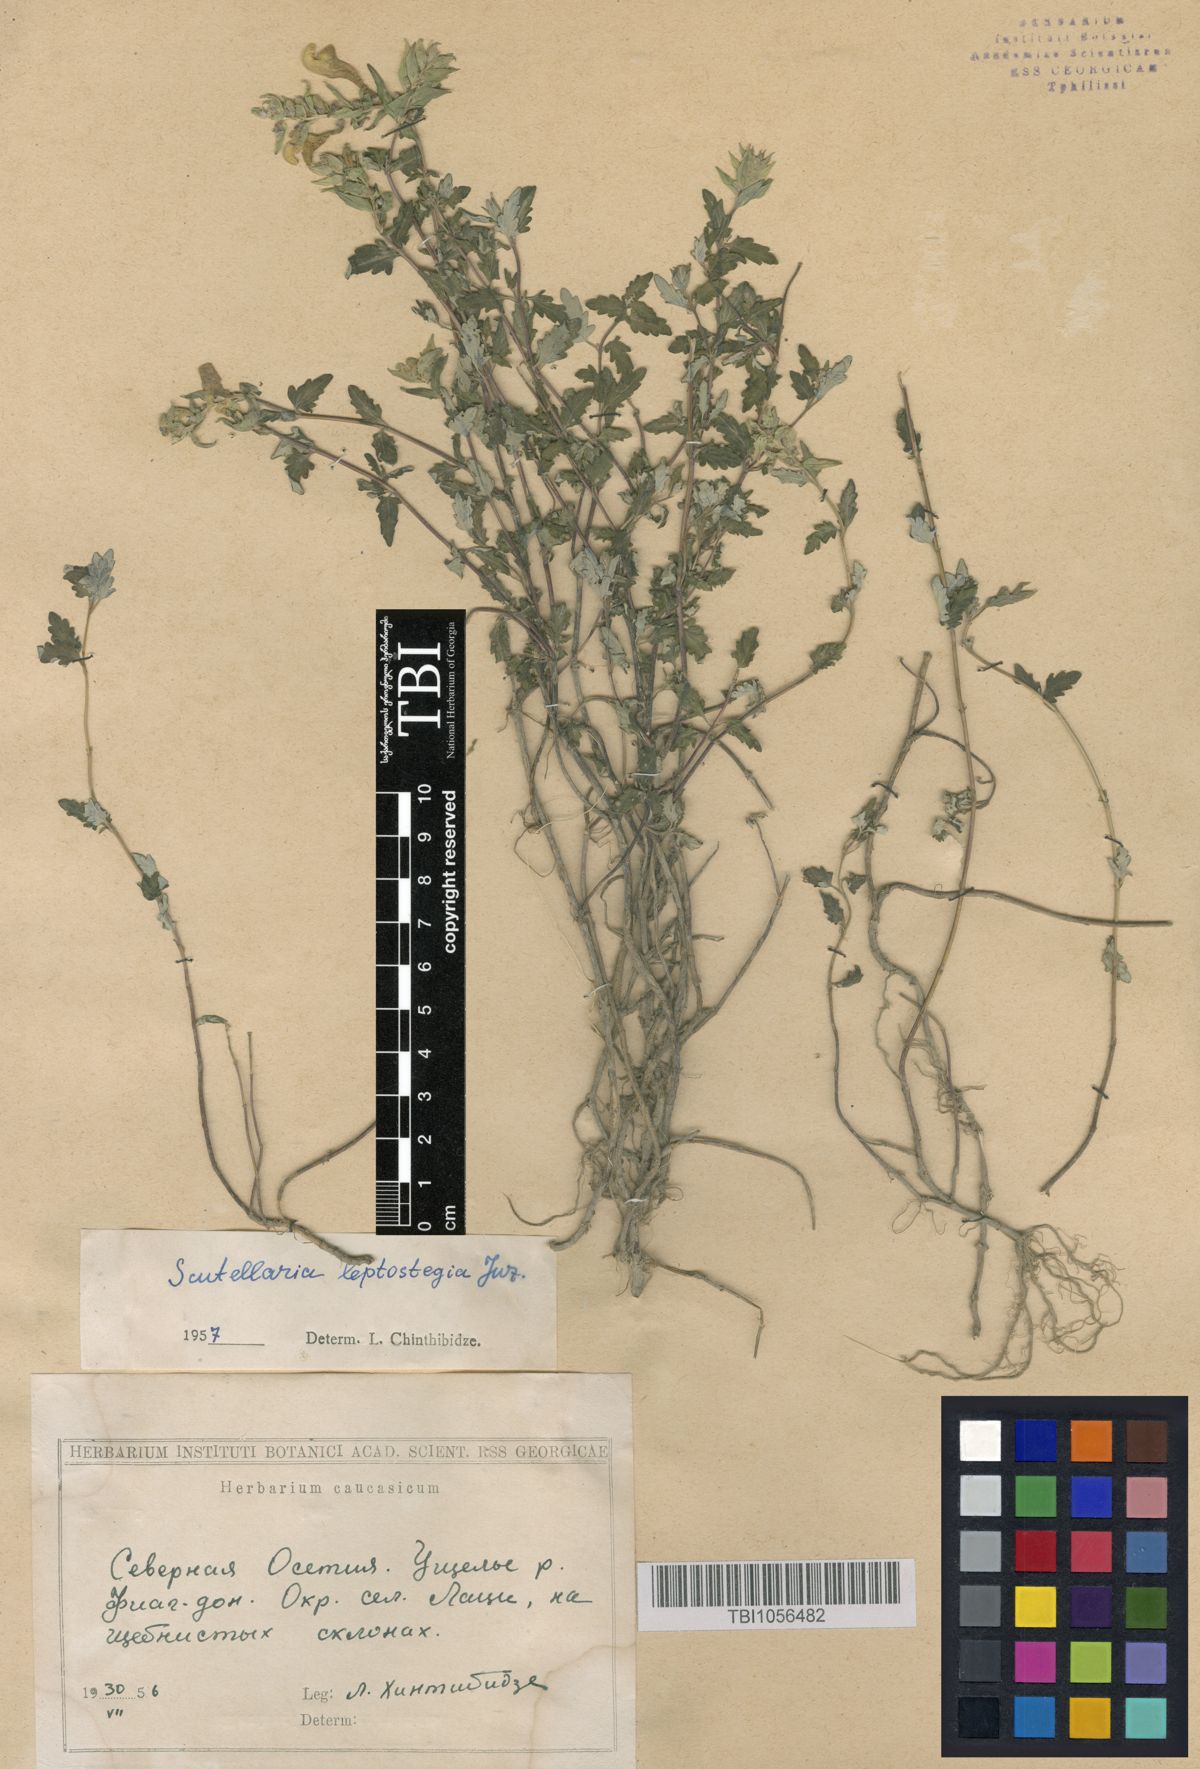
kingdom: Plantae
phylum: Tracheophyta
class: Magnoliopsida
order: Lamiales
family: Lamiaceae
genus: Scutellaria
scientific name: Scutellaria leptostegia
